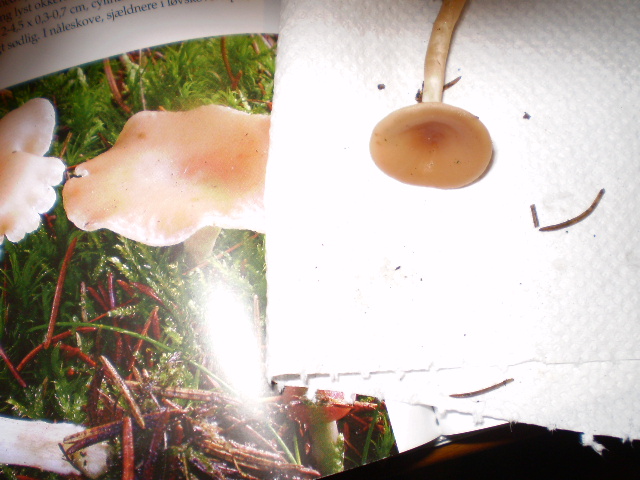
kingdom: Fungi
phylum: Basidiomycota
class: Agaricomycetes
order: Agaricales
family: Tricholomataceae
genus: Clitocybe
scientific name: Clitocybe diatreta
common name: kødfarvet tragthat
